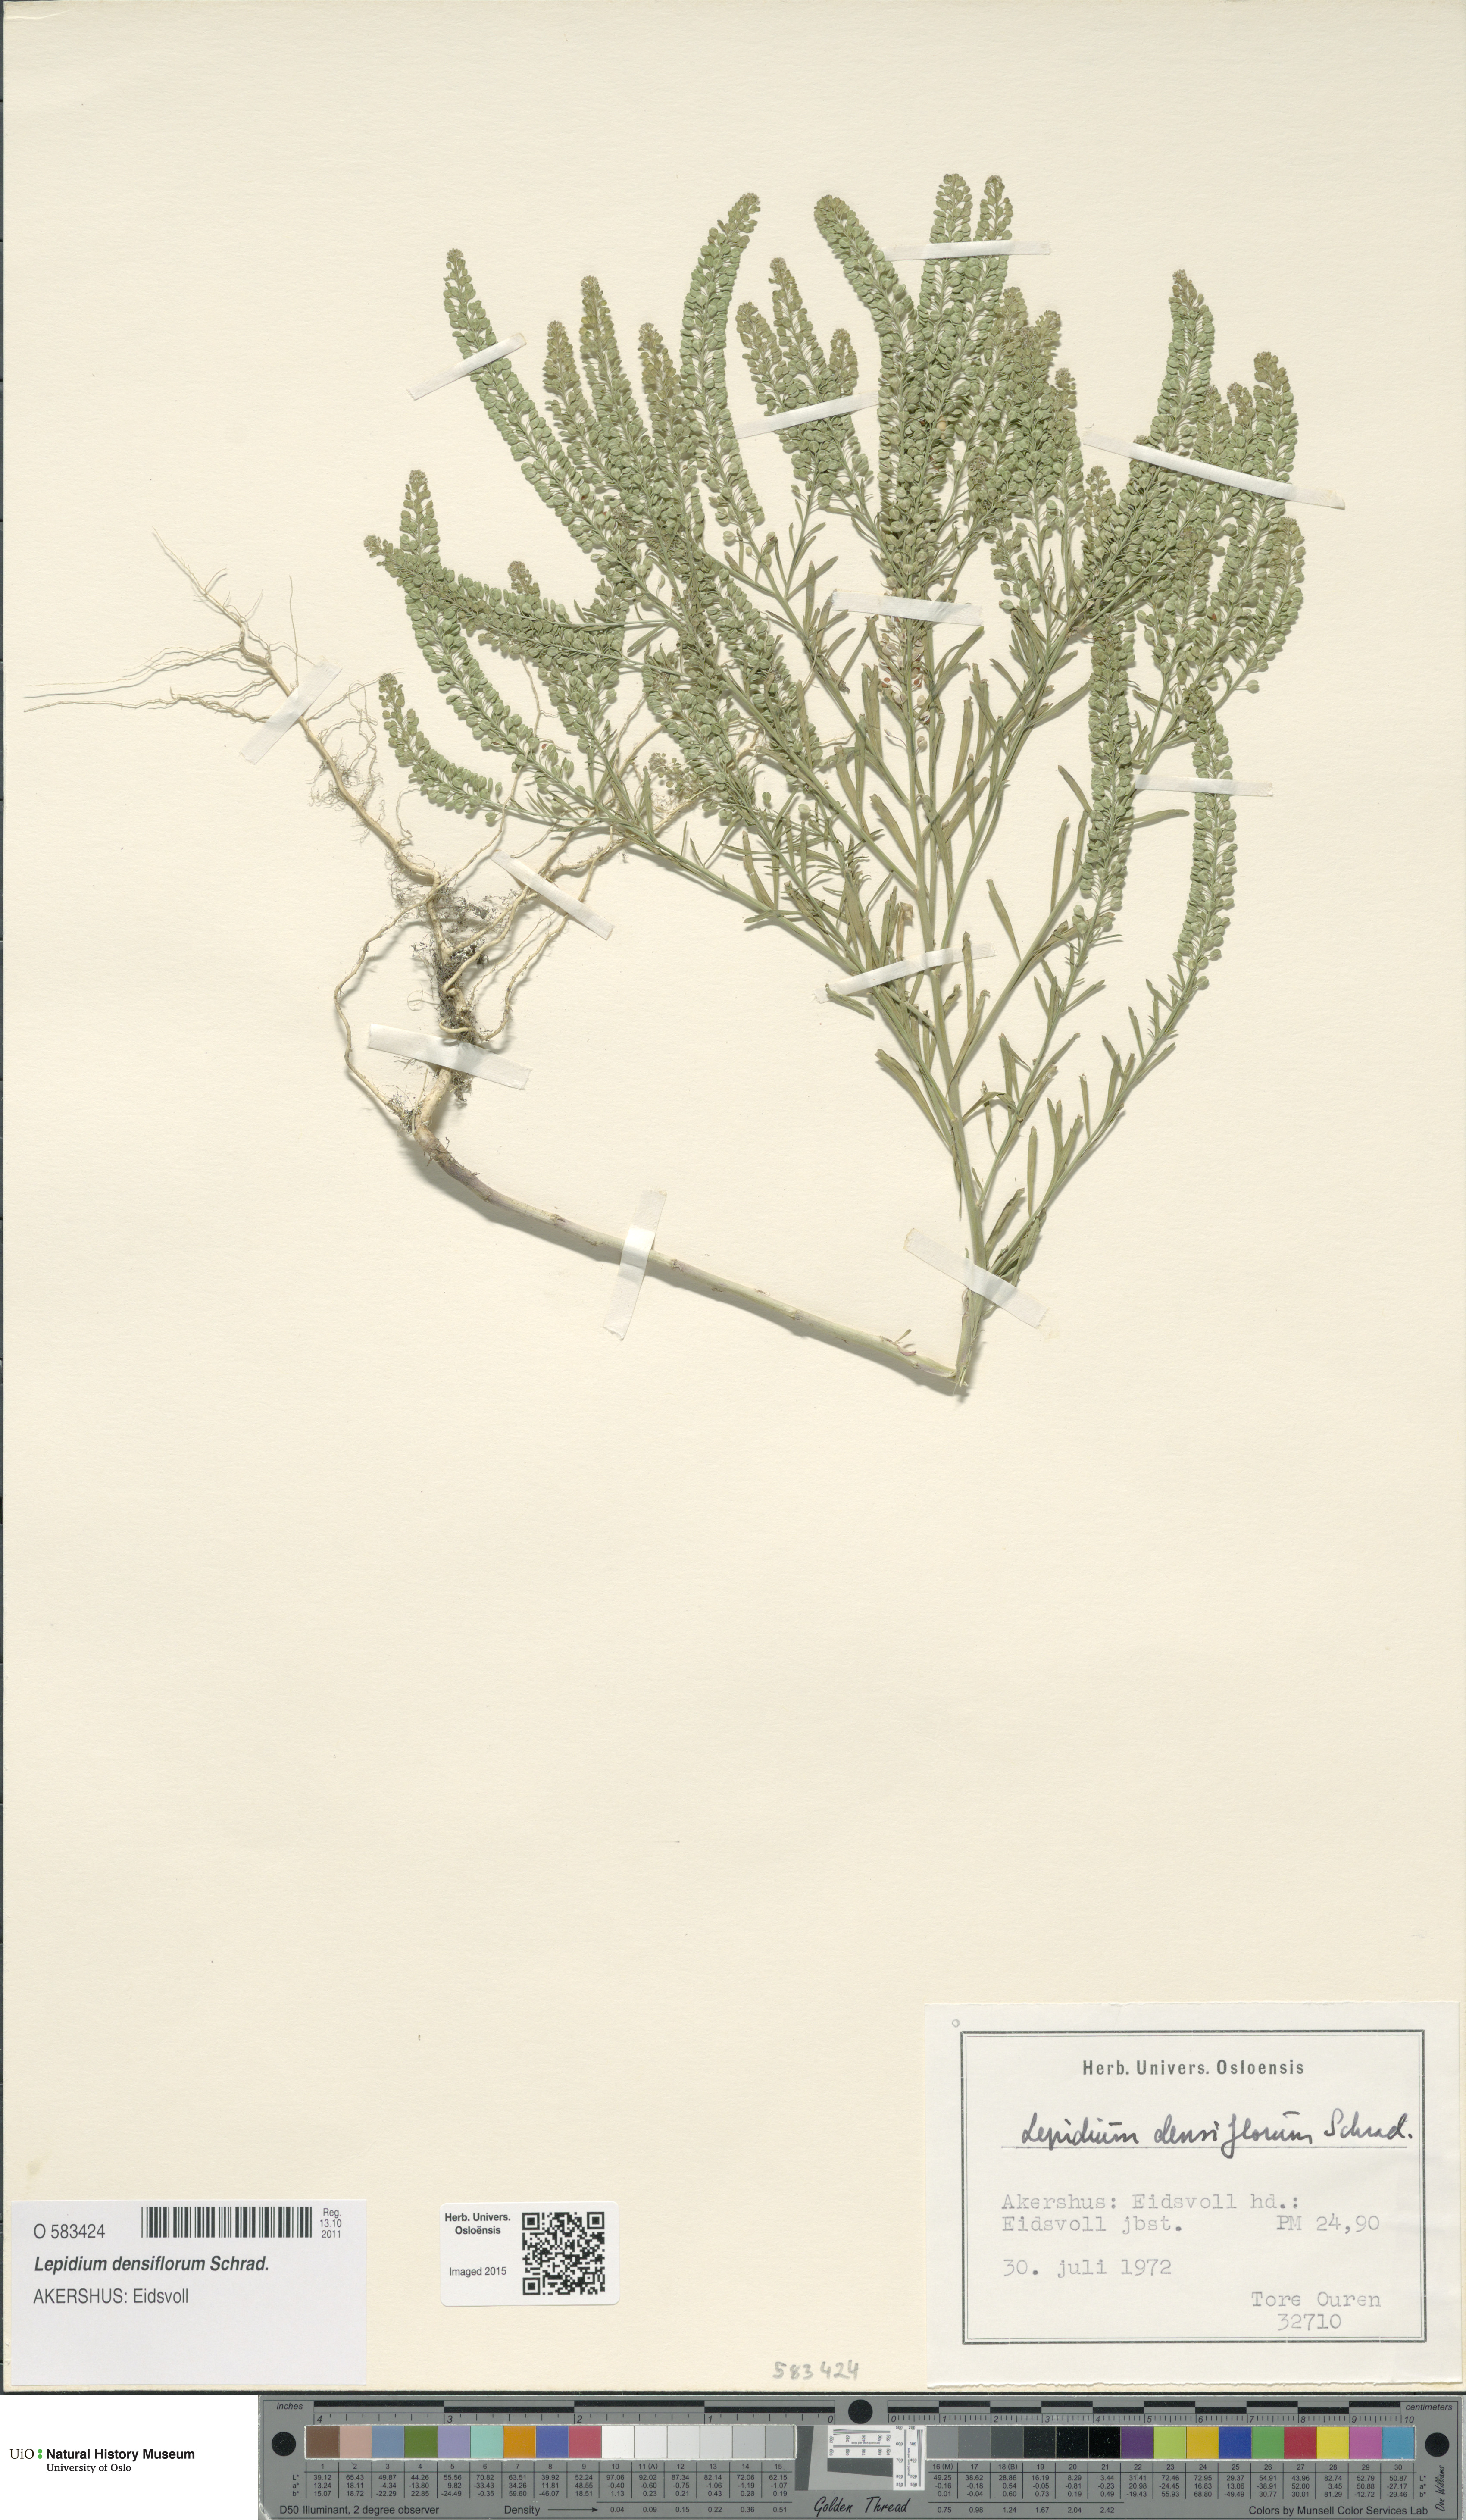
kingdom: Plantae
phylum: Tracheophyta
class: Magnoliopsida
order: Brassicales
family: Brassicaceae
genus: Lepidium
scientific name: Lepidium densiflorum
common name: Miner's pepperwort
